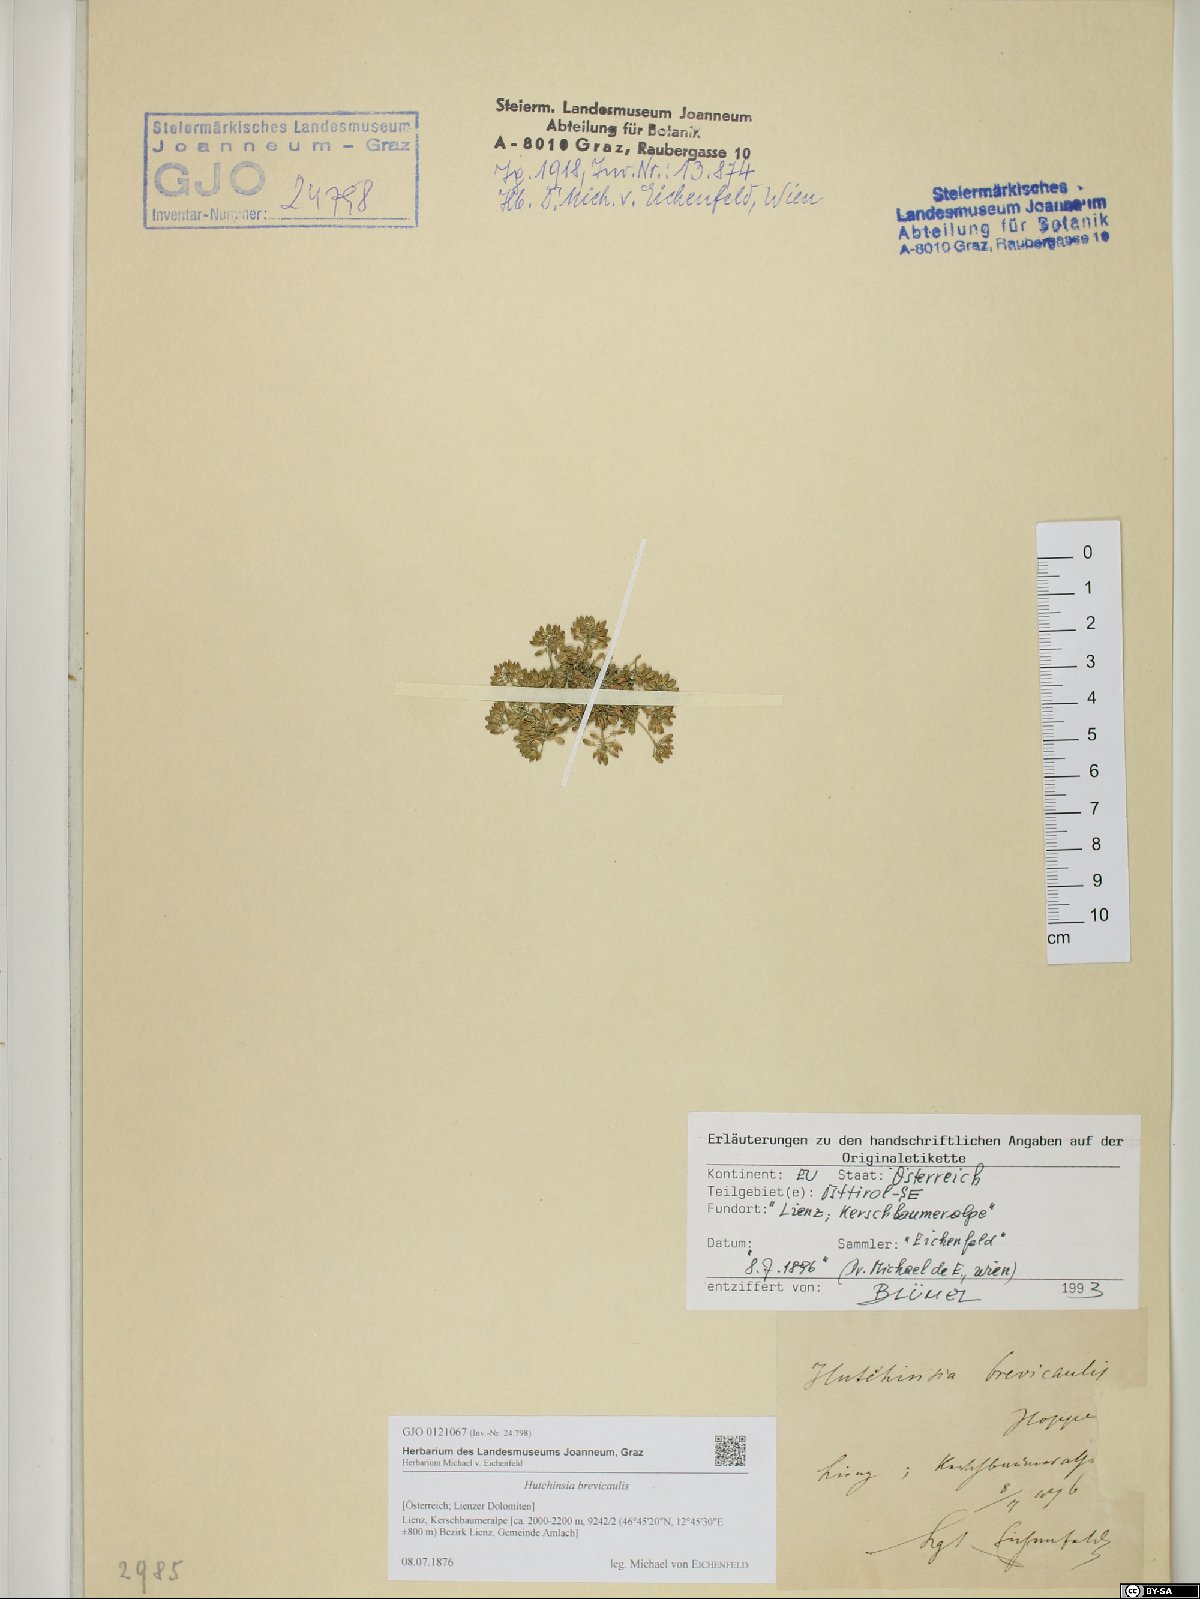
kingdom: Plantae
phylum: Tracheophyta
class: Magnoliopsida
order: Brassicales
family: Brassicaceae
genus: Hornungia
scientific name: Hornungia alpina
